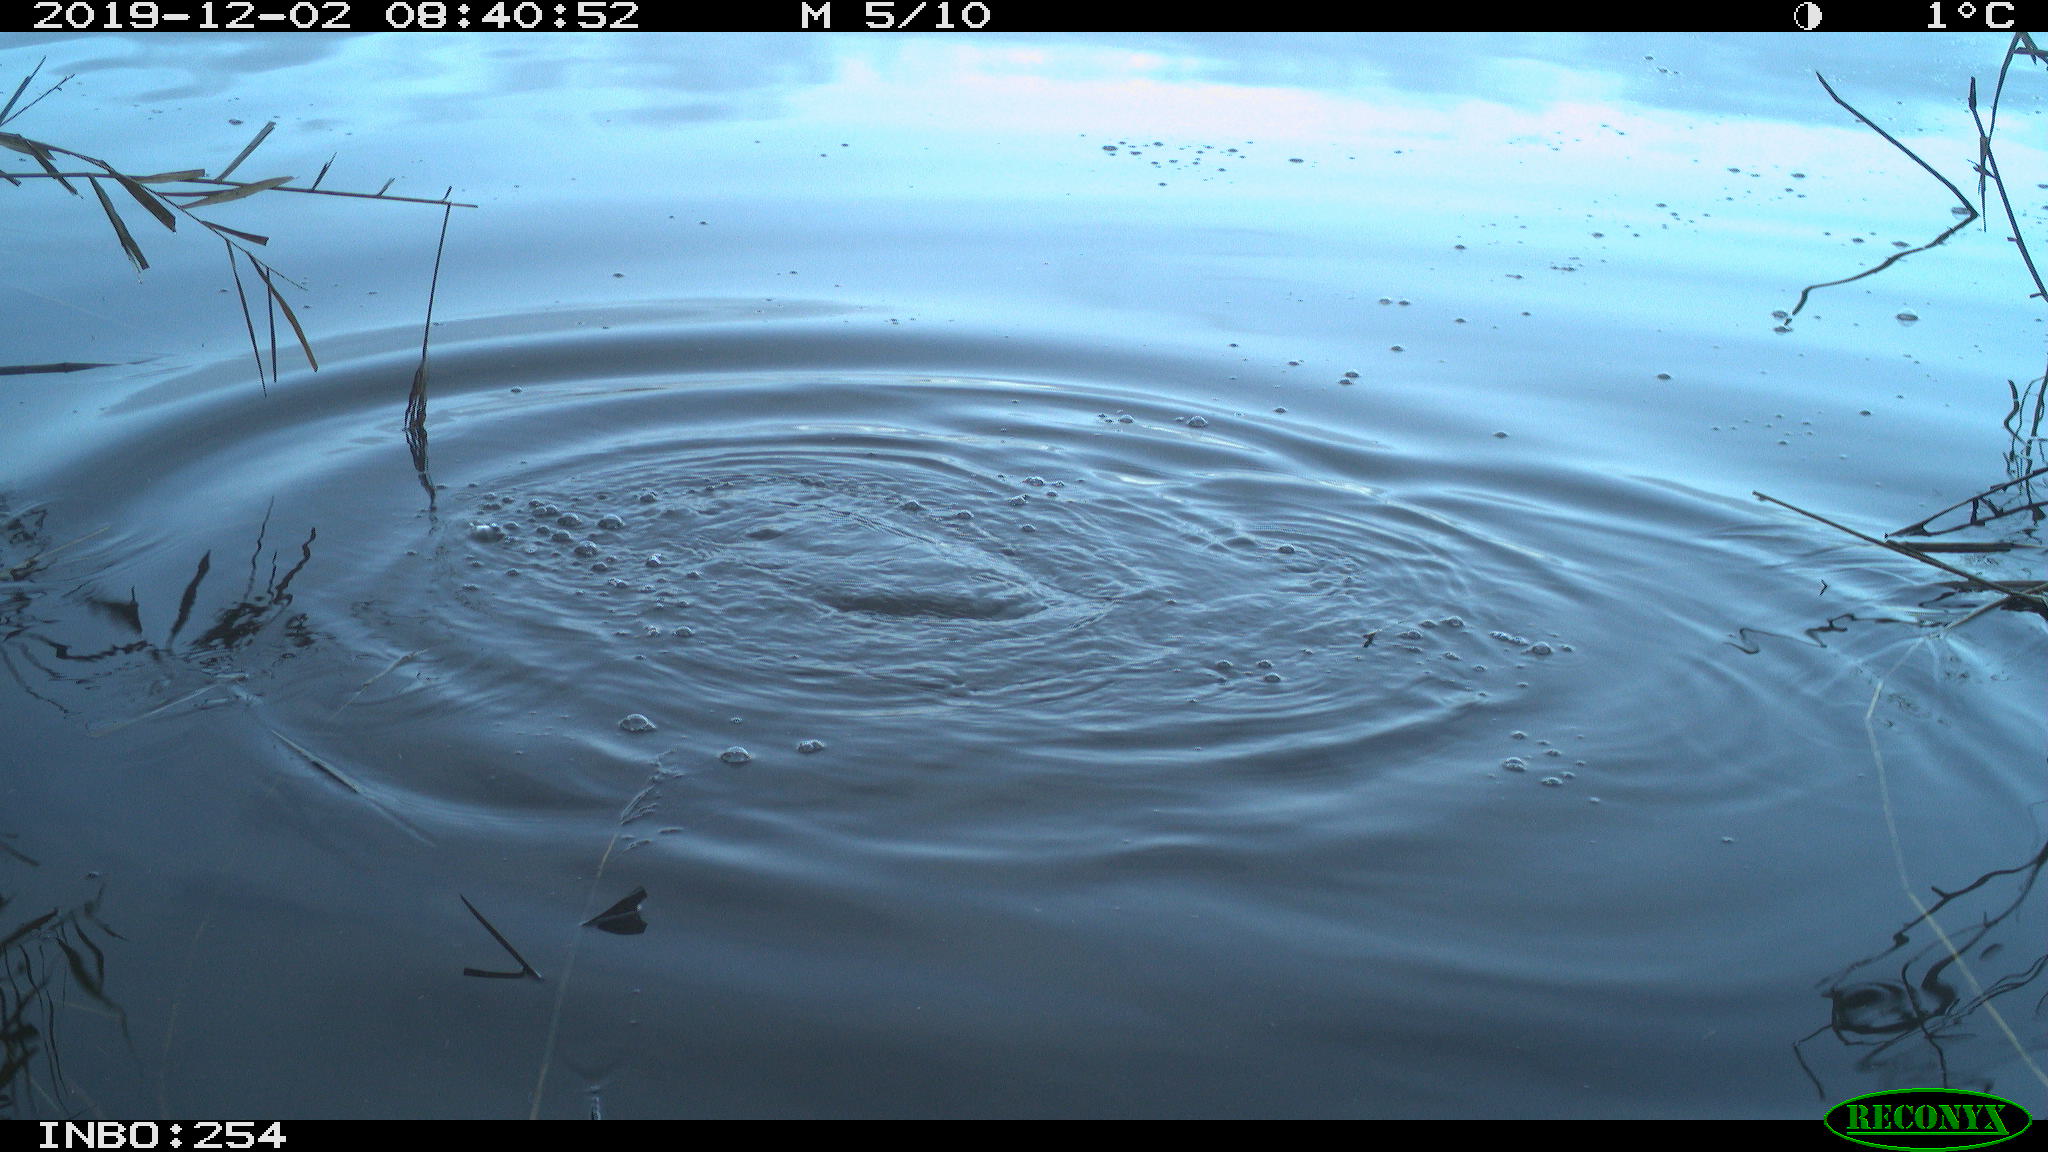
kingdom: Animalia
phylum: Chordata
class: Aves
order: Gruiformes
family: Rallidae
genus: Fulica
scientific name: Fulica atra
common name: Eurasian coot
